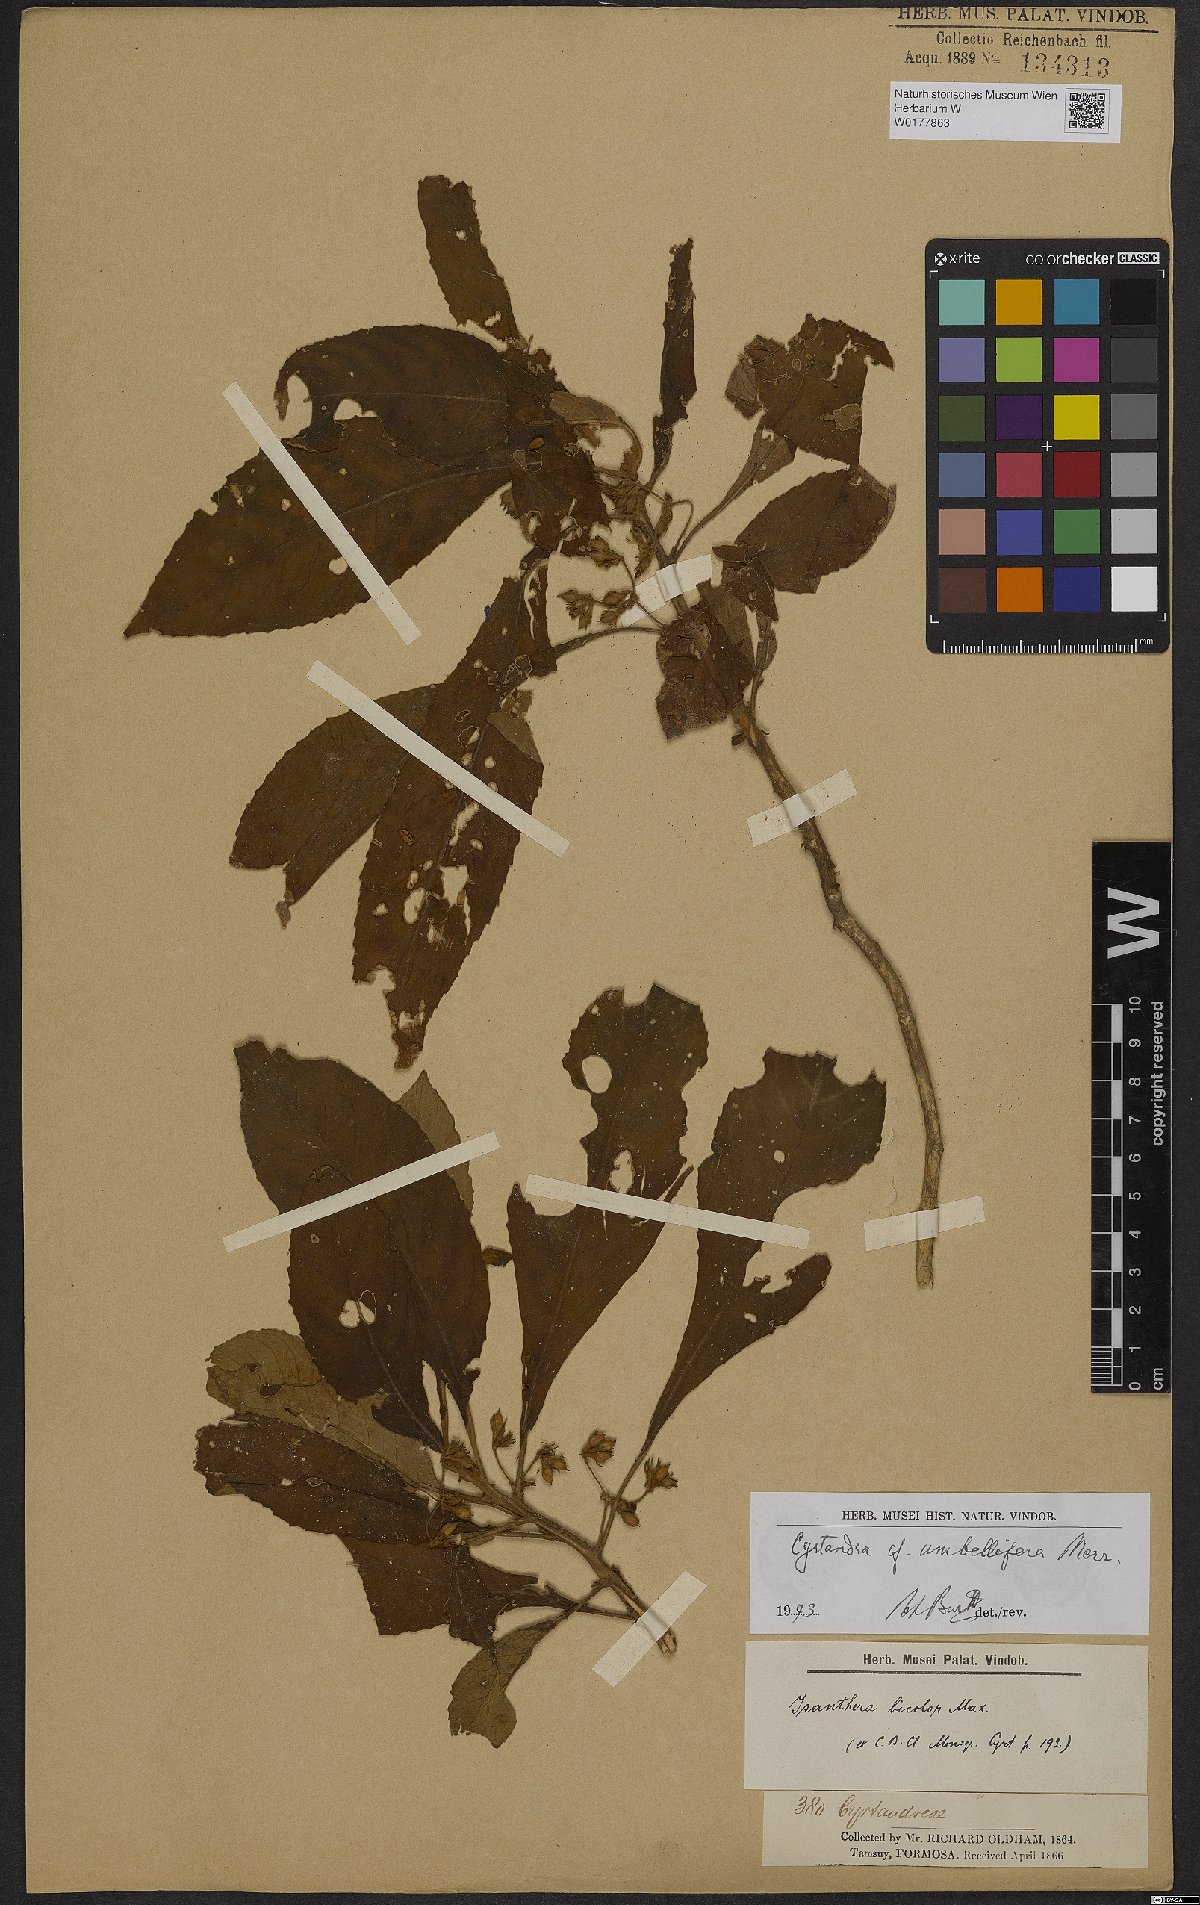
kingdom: Plantae
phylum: Tracheophyta
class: Magnoliopsida
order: Lamiales
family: Gesneriaceae
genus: Cyrtandra
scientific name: Cyrtandra
